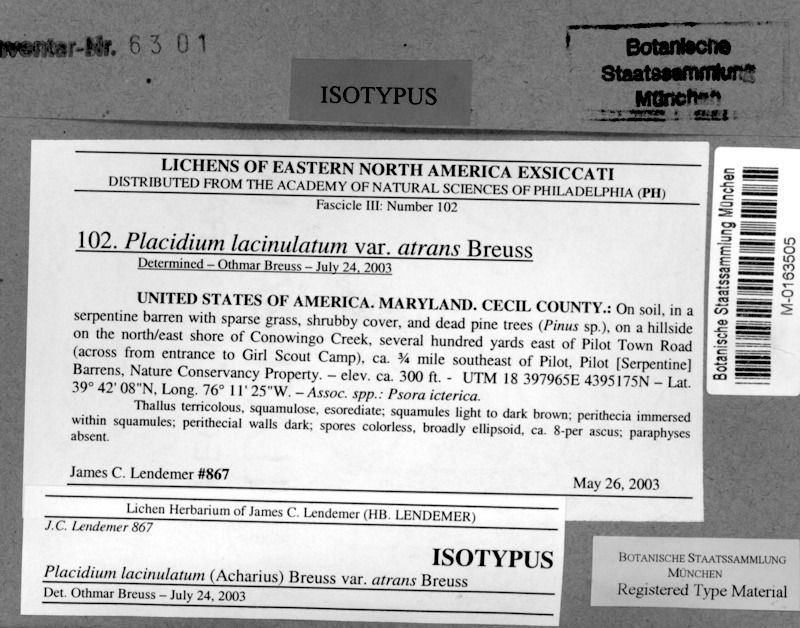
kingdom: Fungi
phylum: Ascomycota
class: Eurotiomycetes
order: Verrucariales
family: Verrucariaceae
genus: Clavascidium
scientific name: Clavascidium lacinulatum
